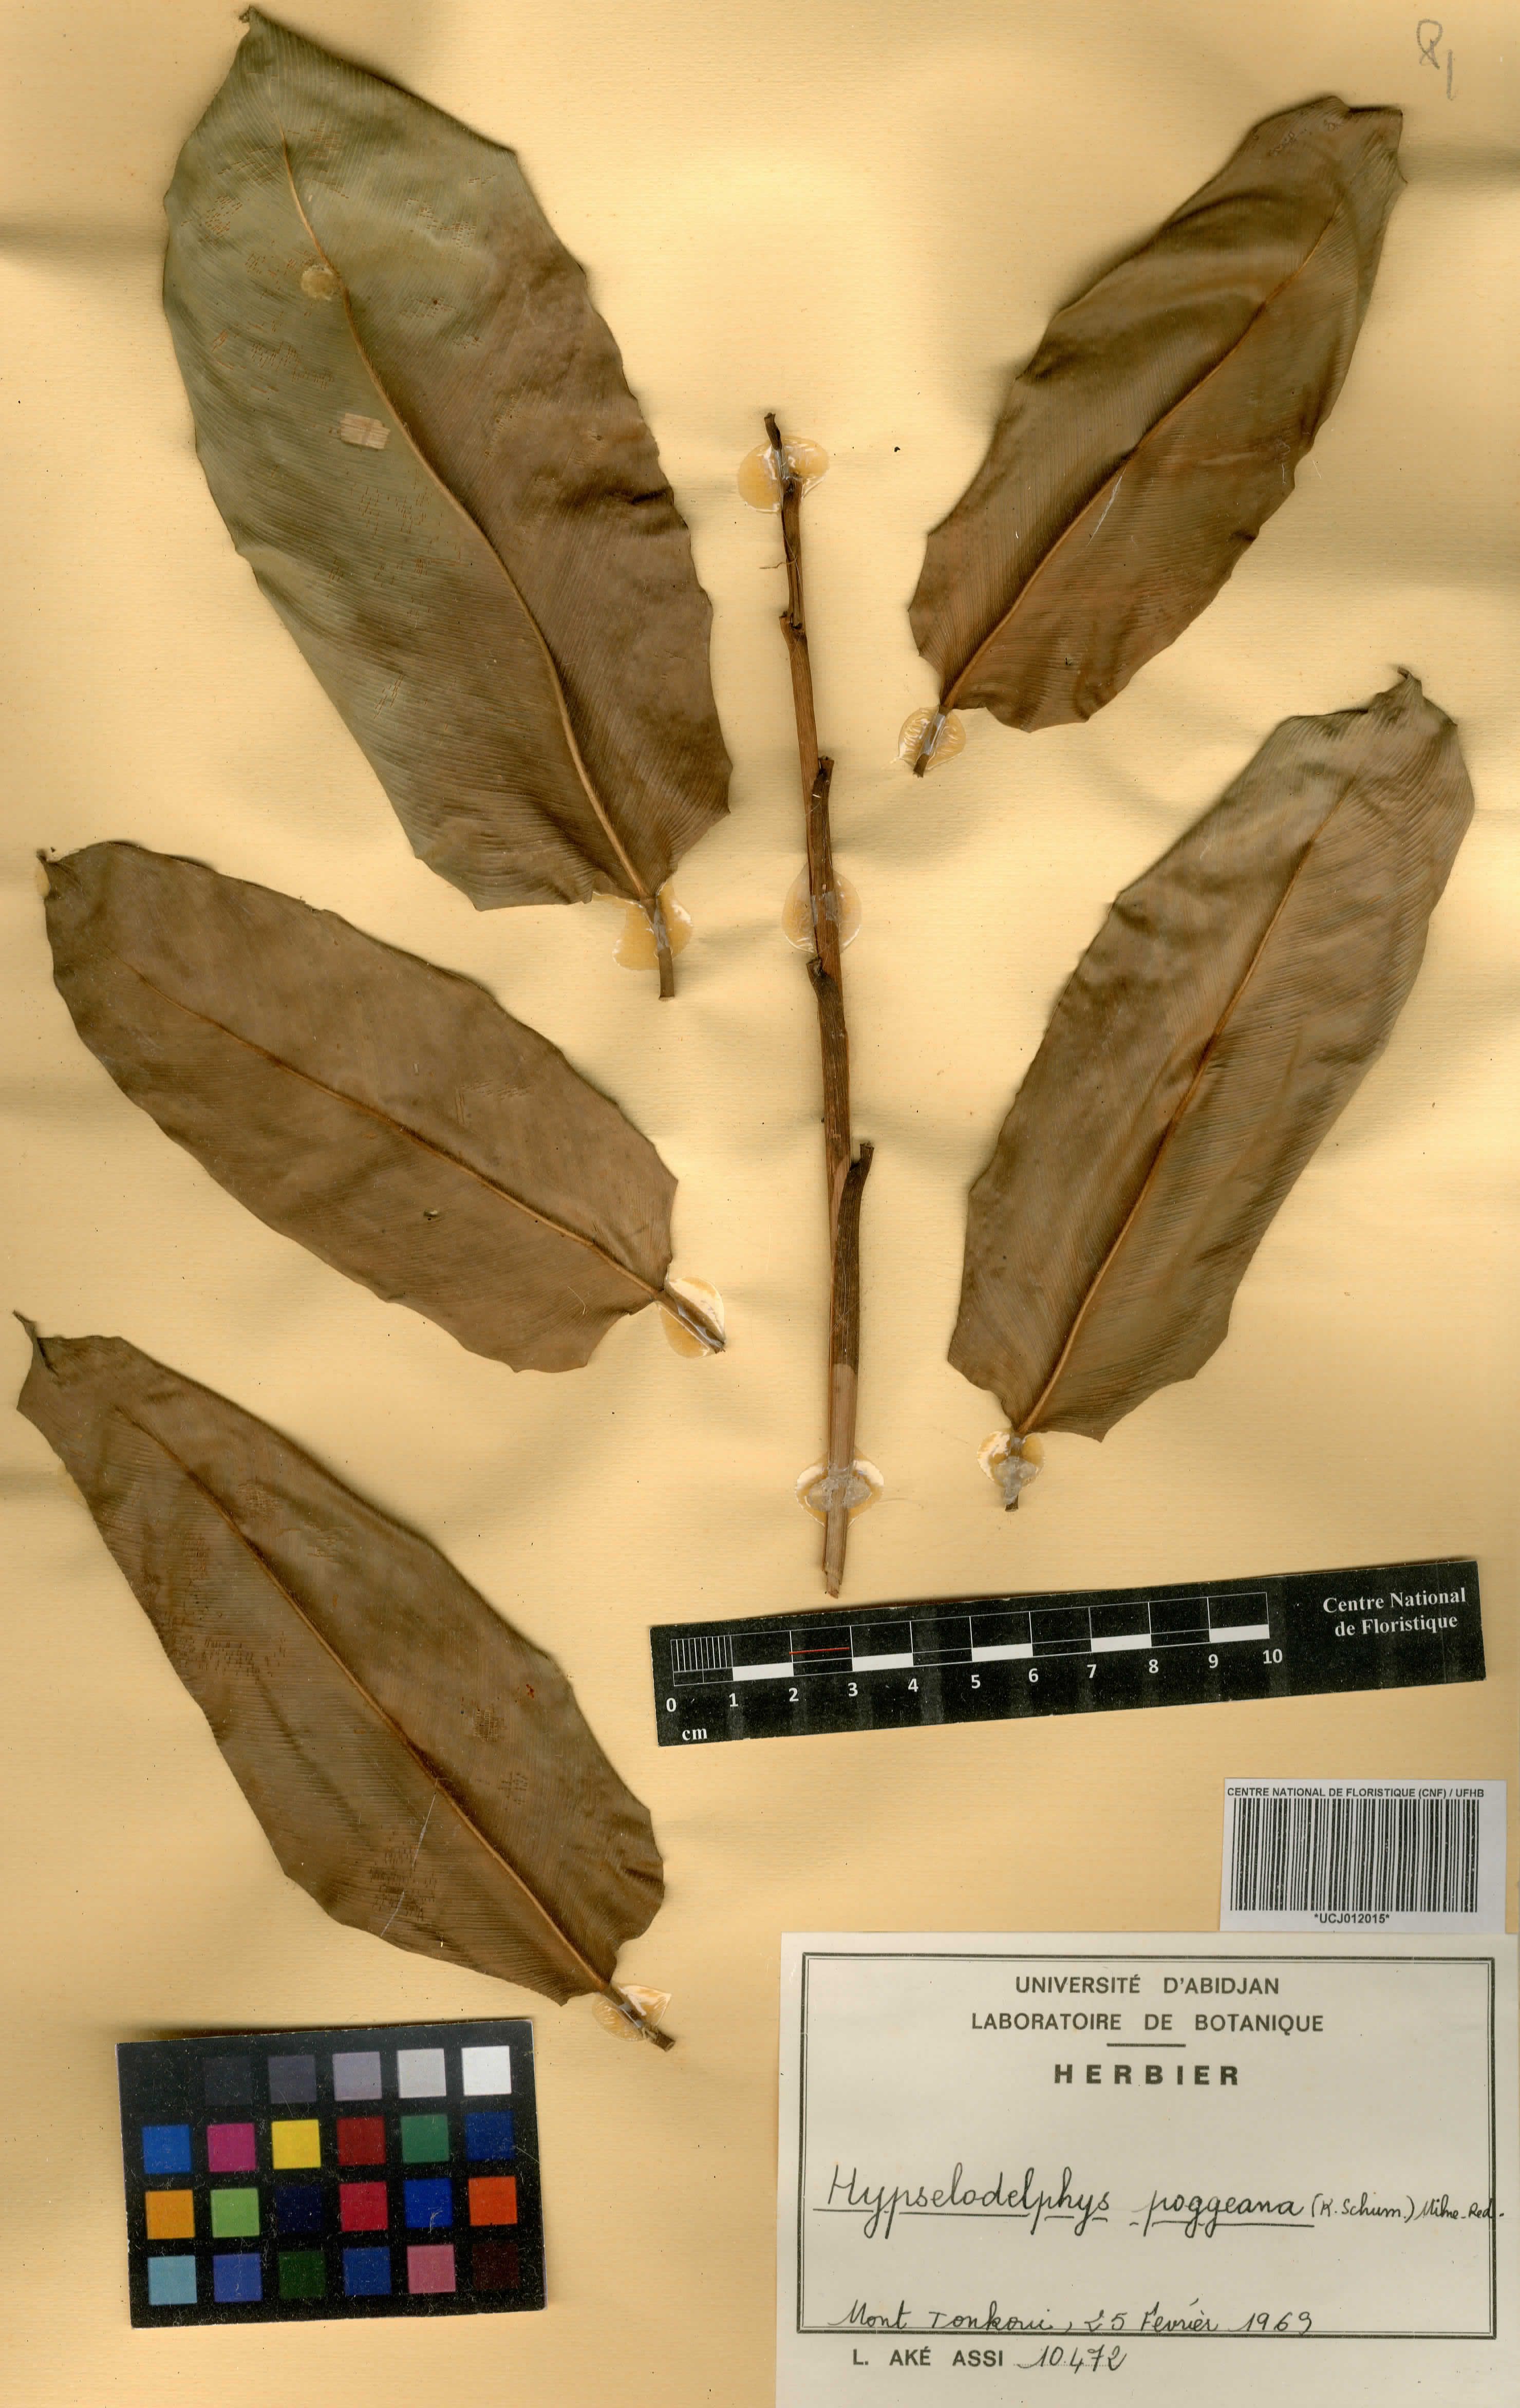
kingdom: Plantae
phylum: Tracheophyta
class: Liliopsida
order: Zingiberales
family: Marantaceae
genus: Hypselodelphys
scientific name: Hypselodelphys poggeana
